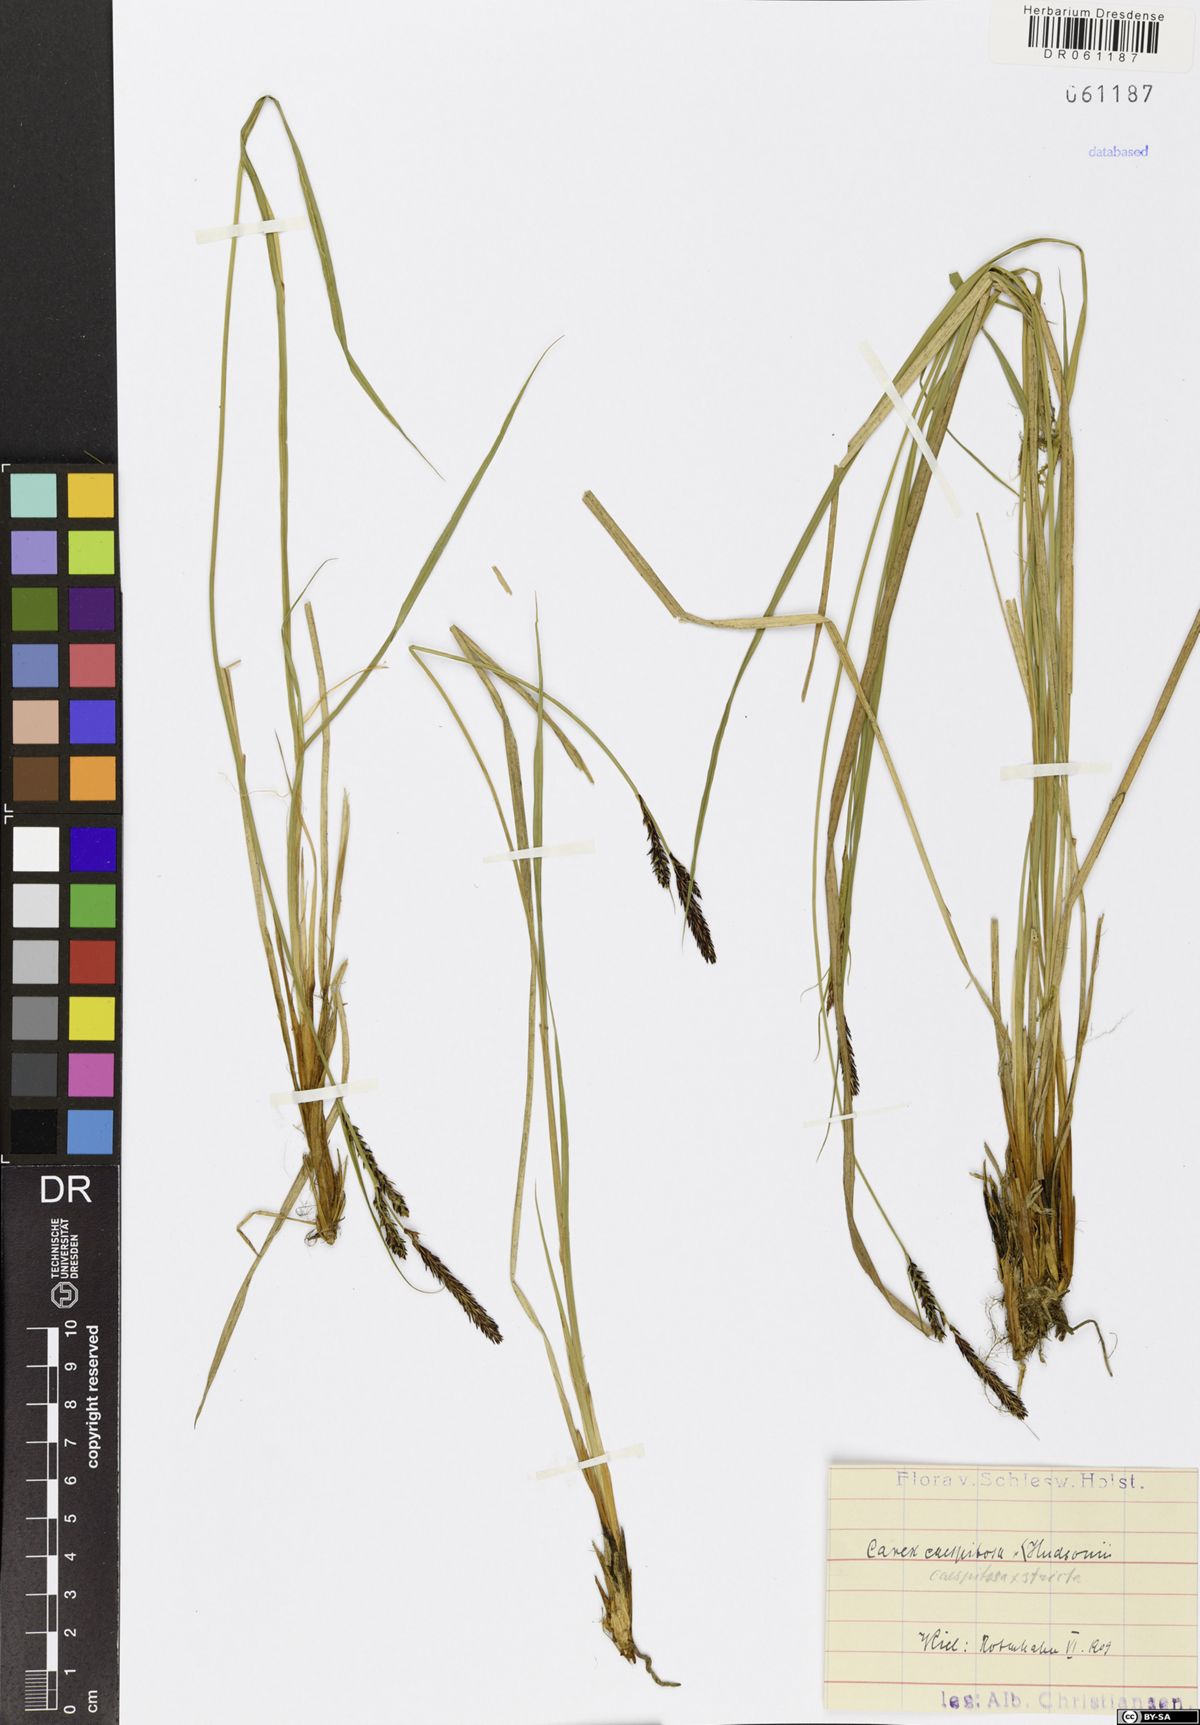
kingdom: Plantae
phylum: Tracheophyta
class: Liliopsida
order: Poales
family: Cyperaceae
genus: Carex
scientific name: Carex
